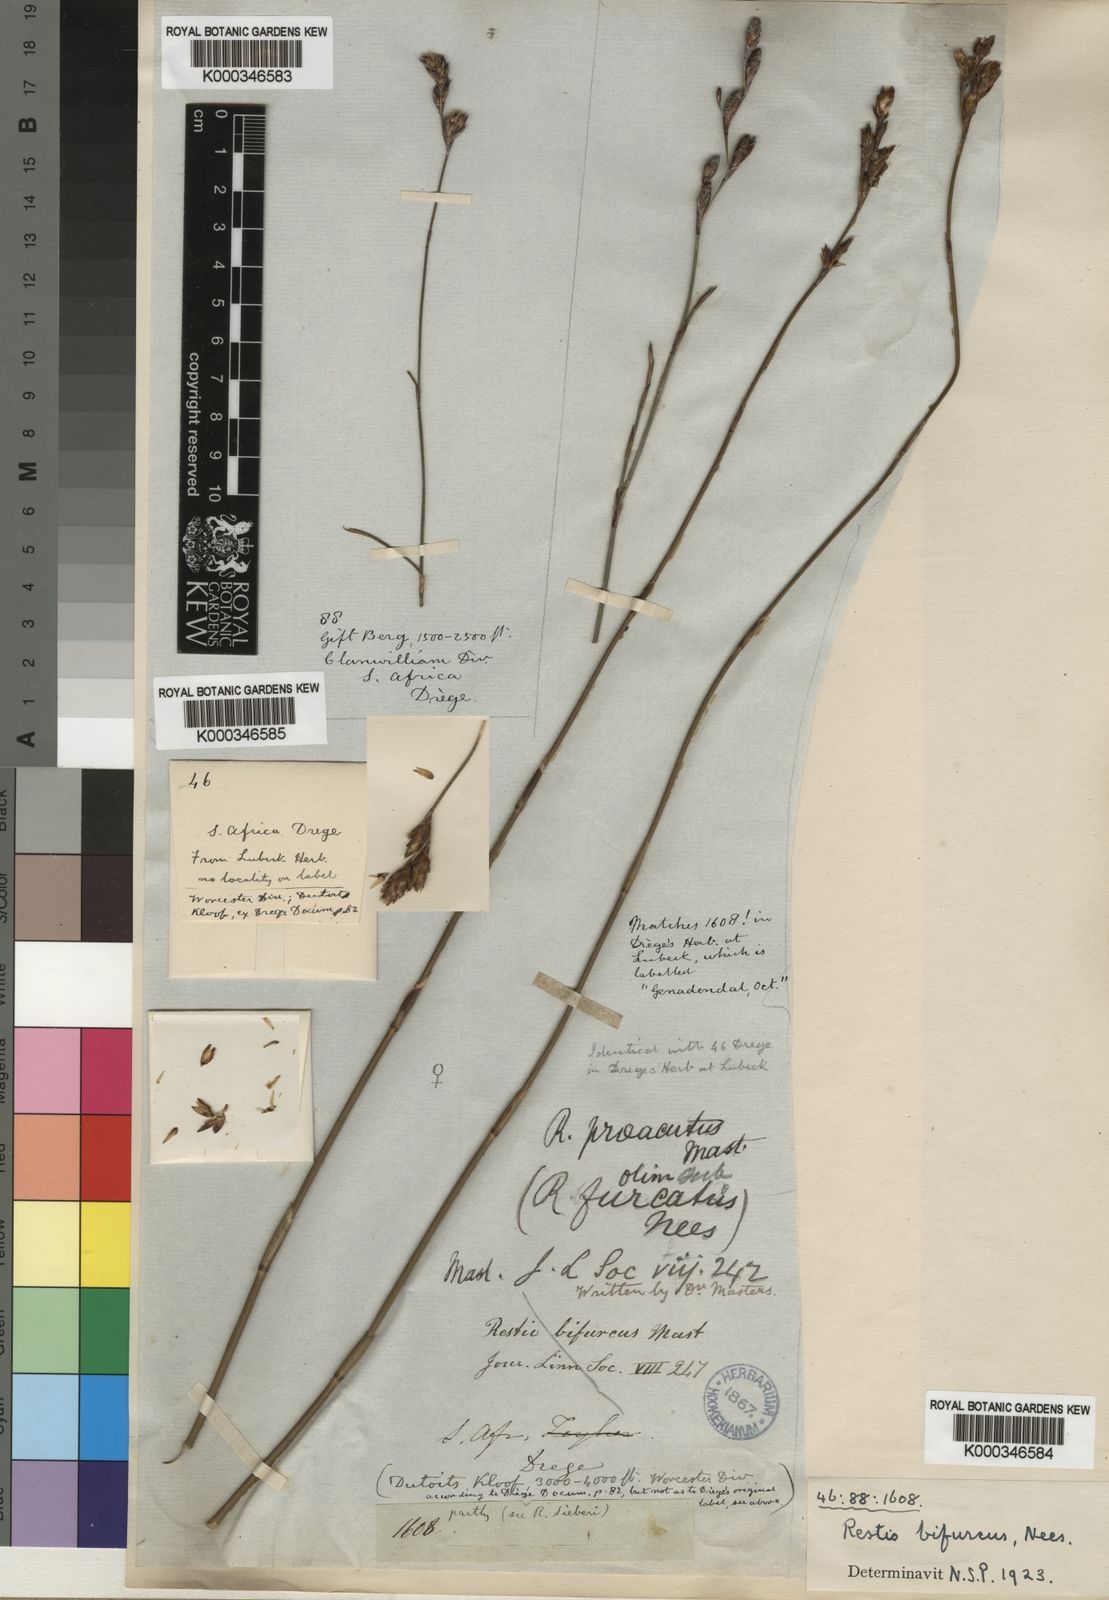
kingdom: Plantae
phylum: Tracheophyta
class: Liliopsida
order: Poales
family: Restionaceae
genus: Restio
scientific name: Restio
